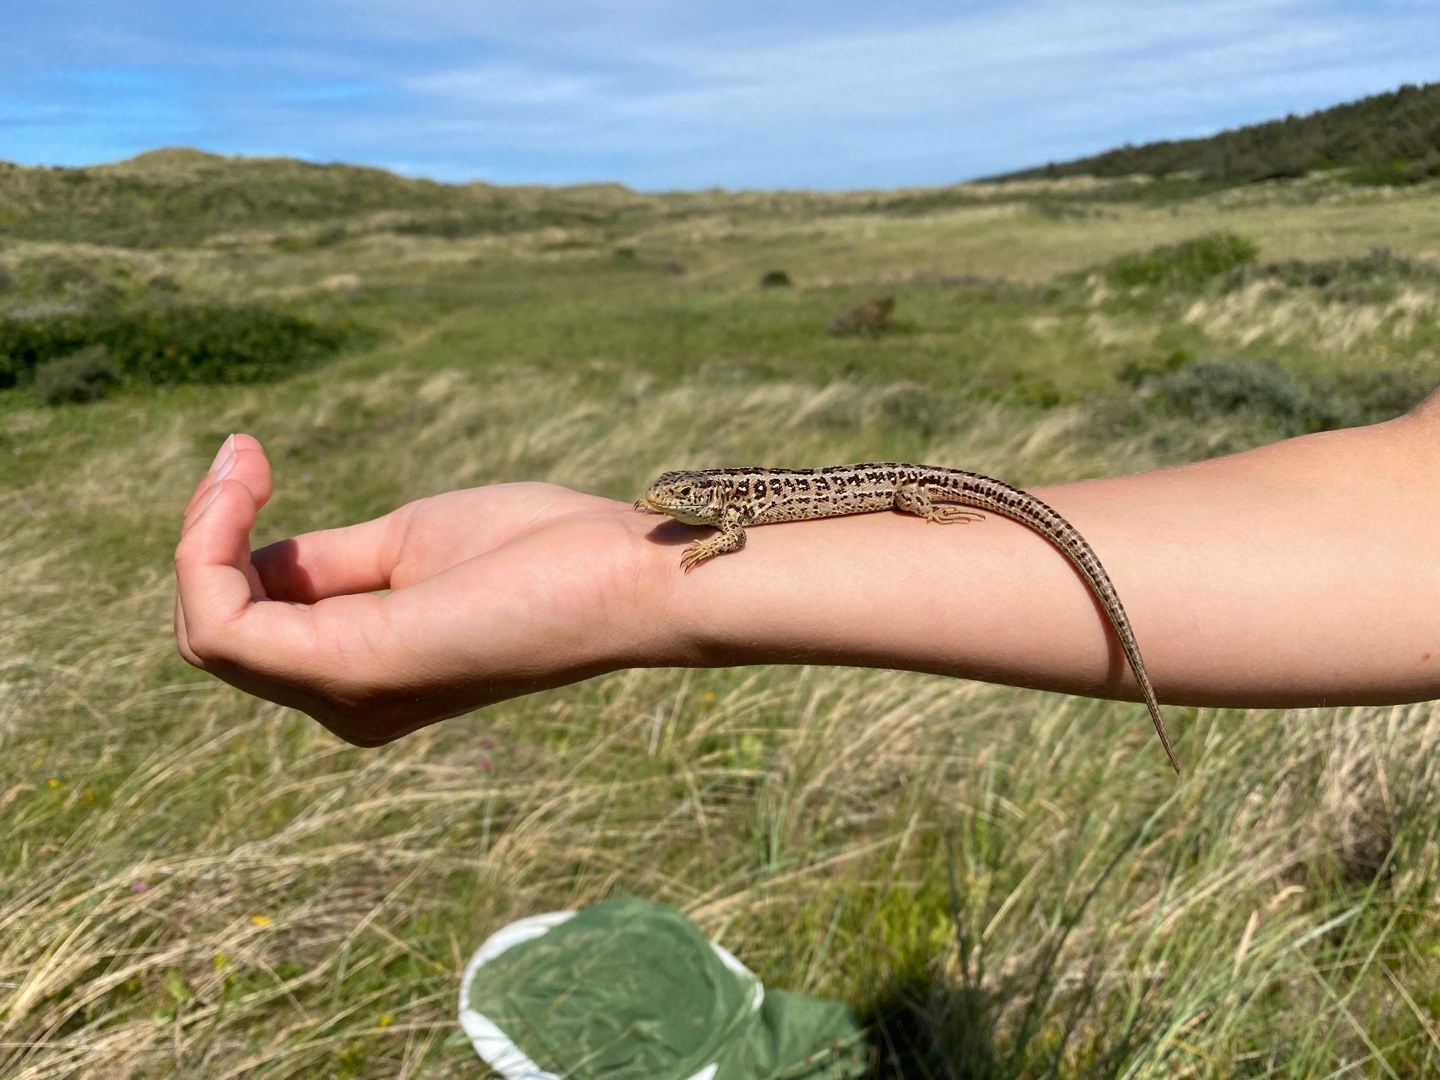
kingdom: Animalia
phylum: Chordata
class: Squamata
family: Lacertidae
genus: Lacerta
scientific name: Lacerta agilis
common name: Markfirben
